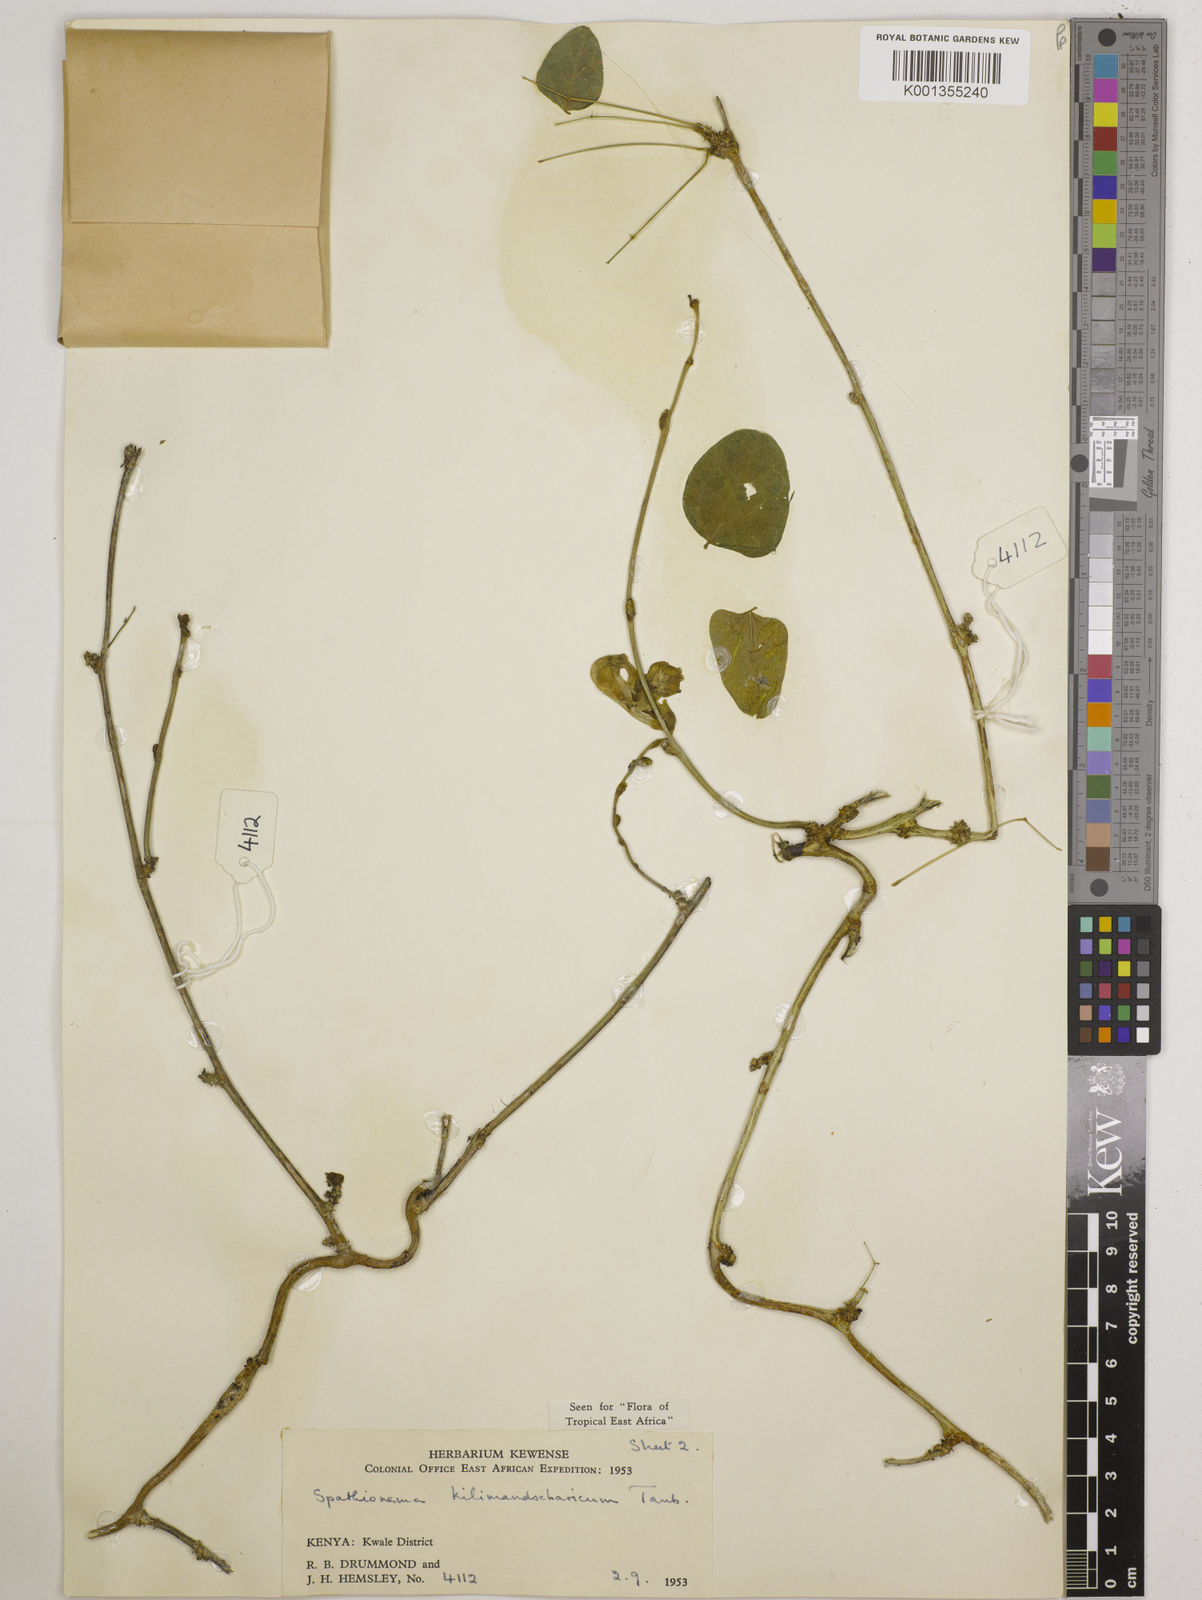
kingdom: Plantae
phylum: Tracheophyta
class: Magnoliopsida
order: Fabales
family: Fabaceae
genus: Spathionema
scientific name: Spathionema kilimandscharicum
